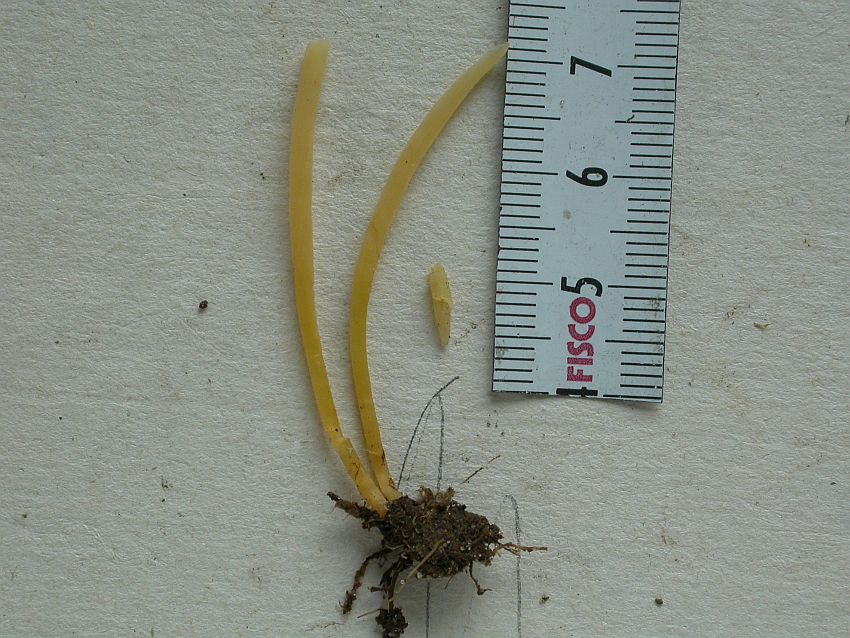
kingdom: Fungi
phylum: Basidiomycota
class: Agaricomycetes
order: Agaricales
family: Clavariaceae
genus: Clavaria
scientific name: Clavaria flavipes
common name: strågul køllesvamp
